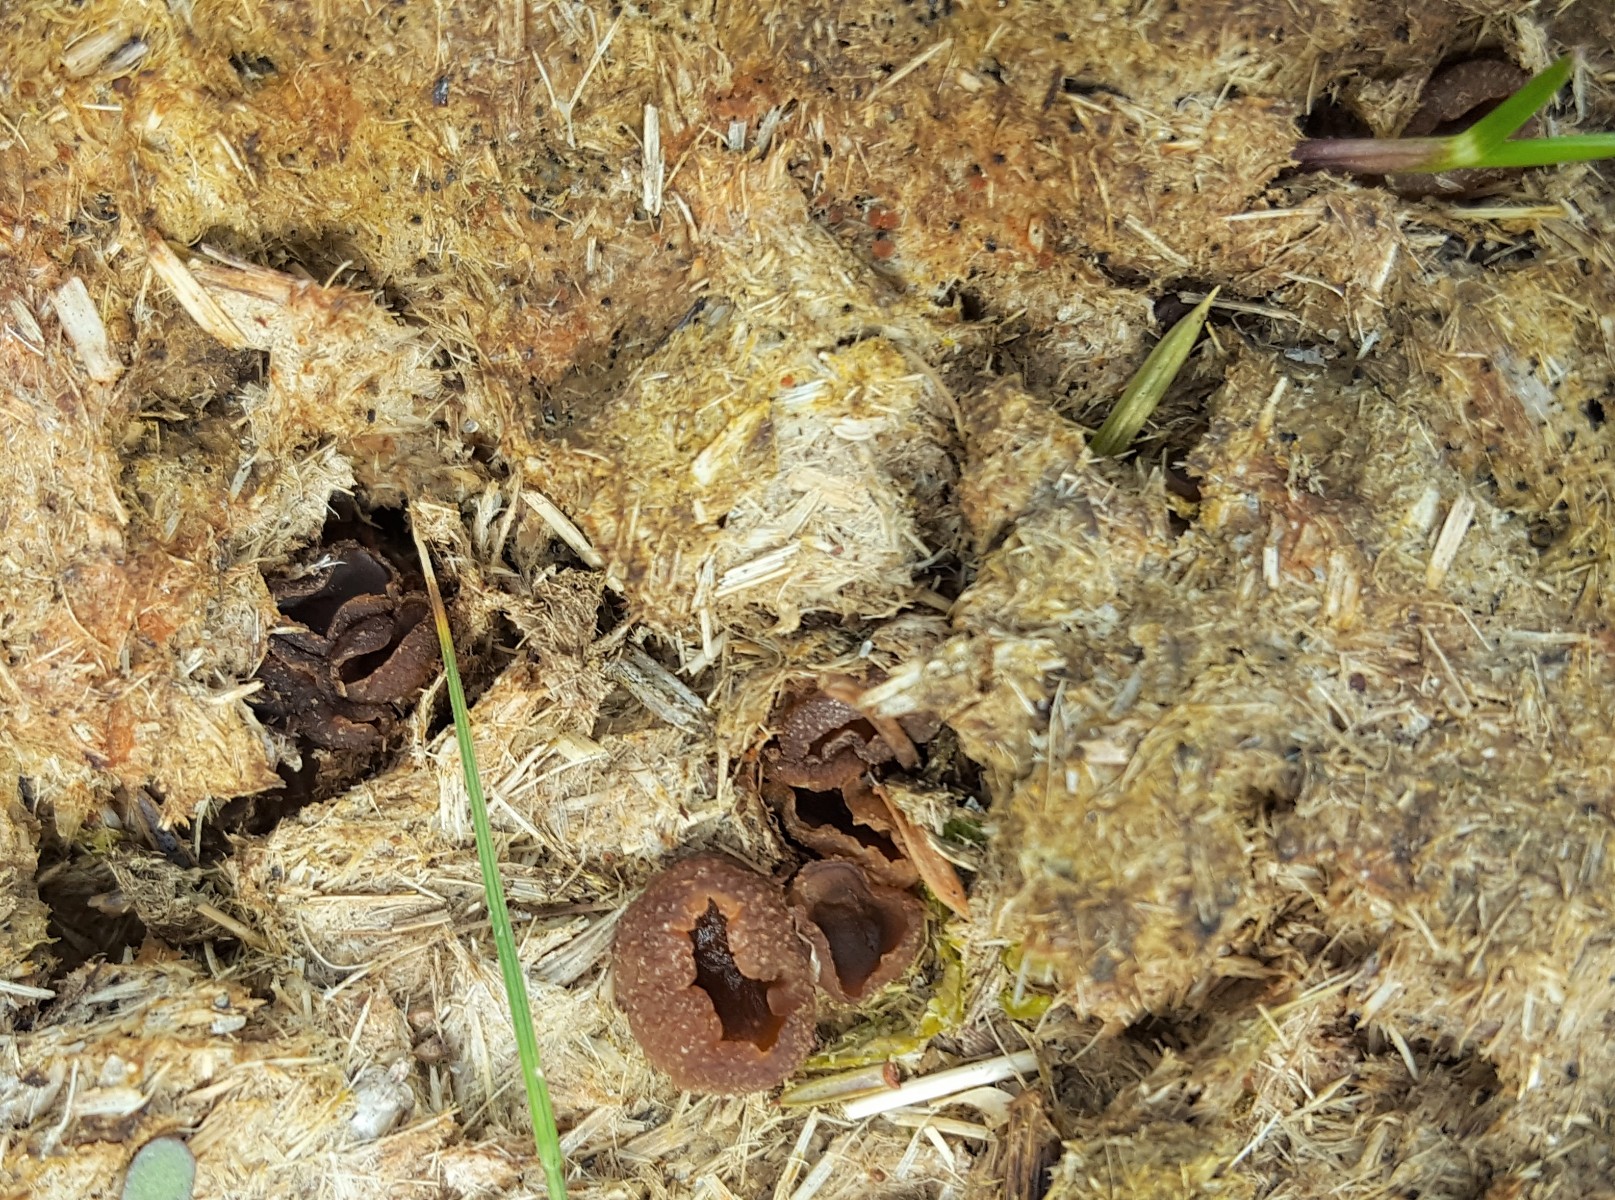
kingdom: Fungi
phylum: Ascomycota
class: Pezizomycetes
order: Pezizales
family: Pezizaceae
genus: Peziza
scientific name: Peziza vesiculosa
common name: blære-bægersvamp
